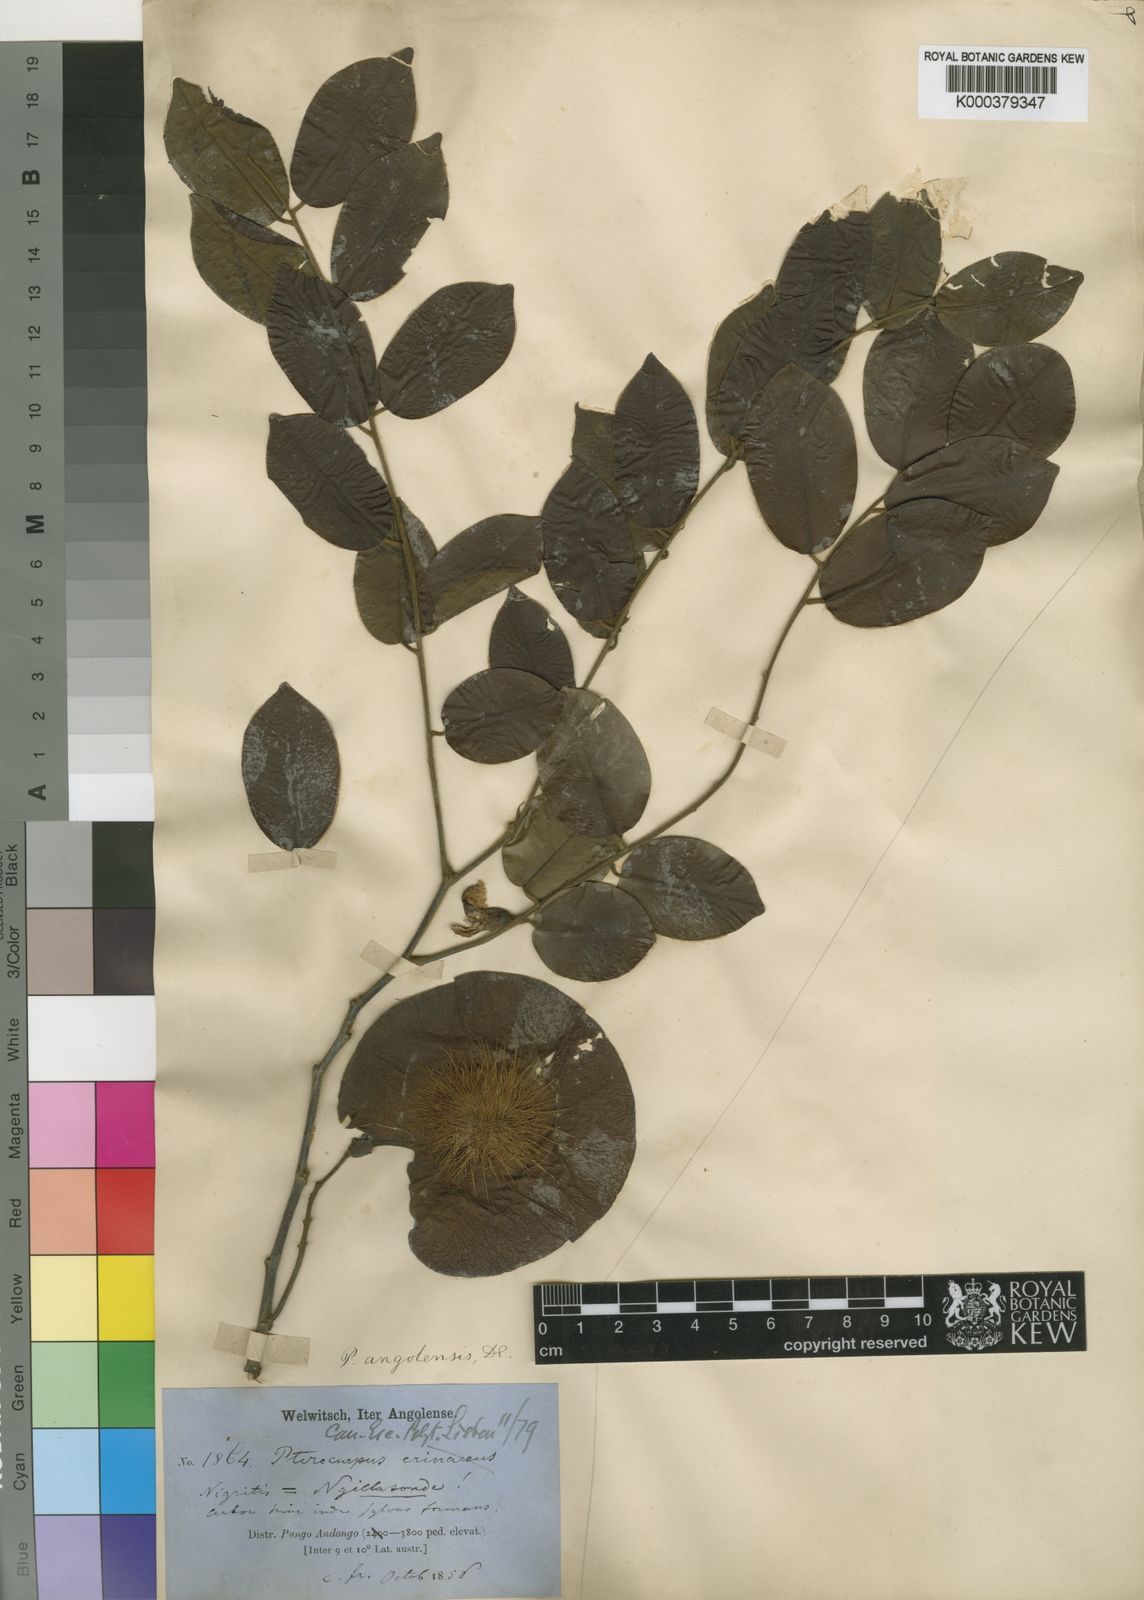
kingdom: Plantae
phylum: Tracheophyta
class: Magnoliopsida
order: Fabales
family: Fabaceae
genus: Pterocarpus
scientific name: Pterocarpus angolensis
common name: Bloodwood tree
